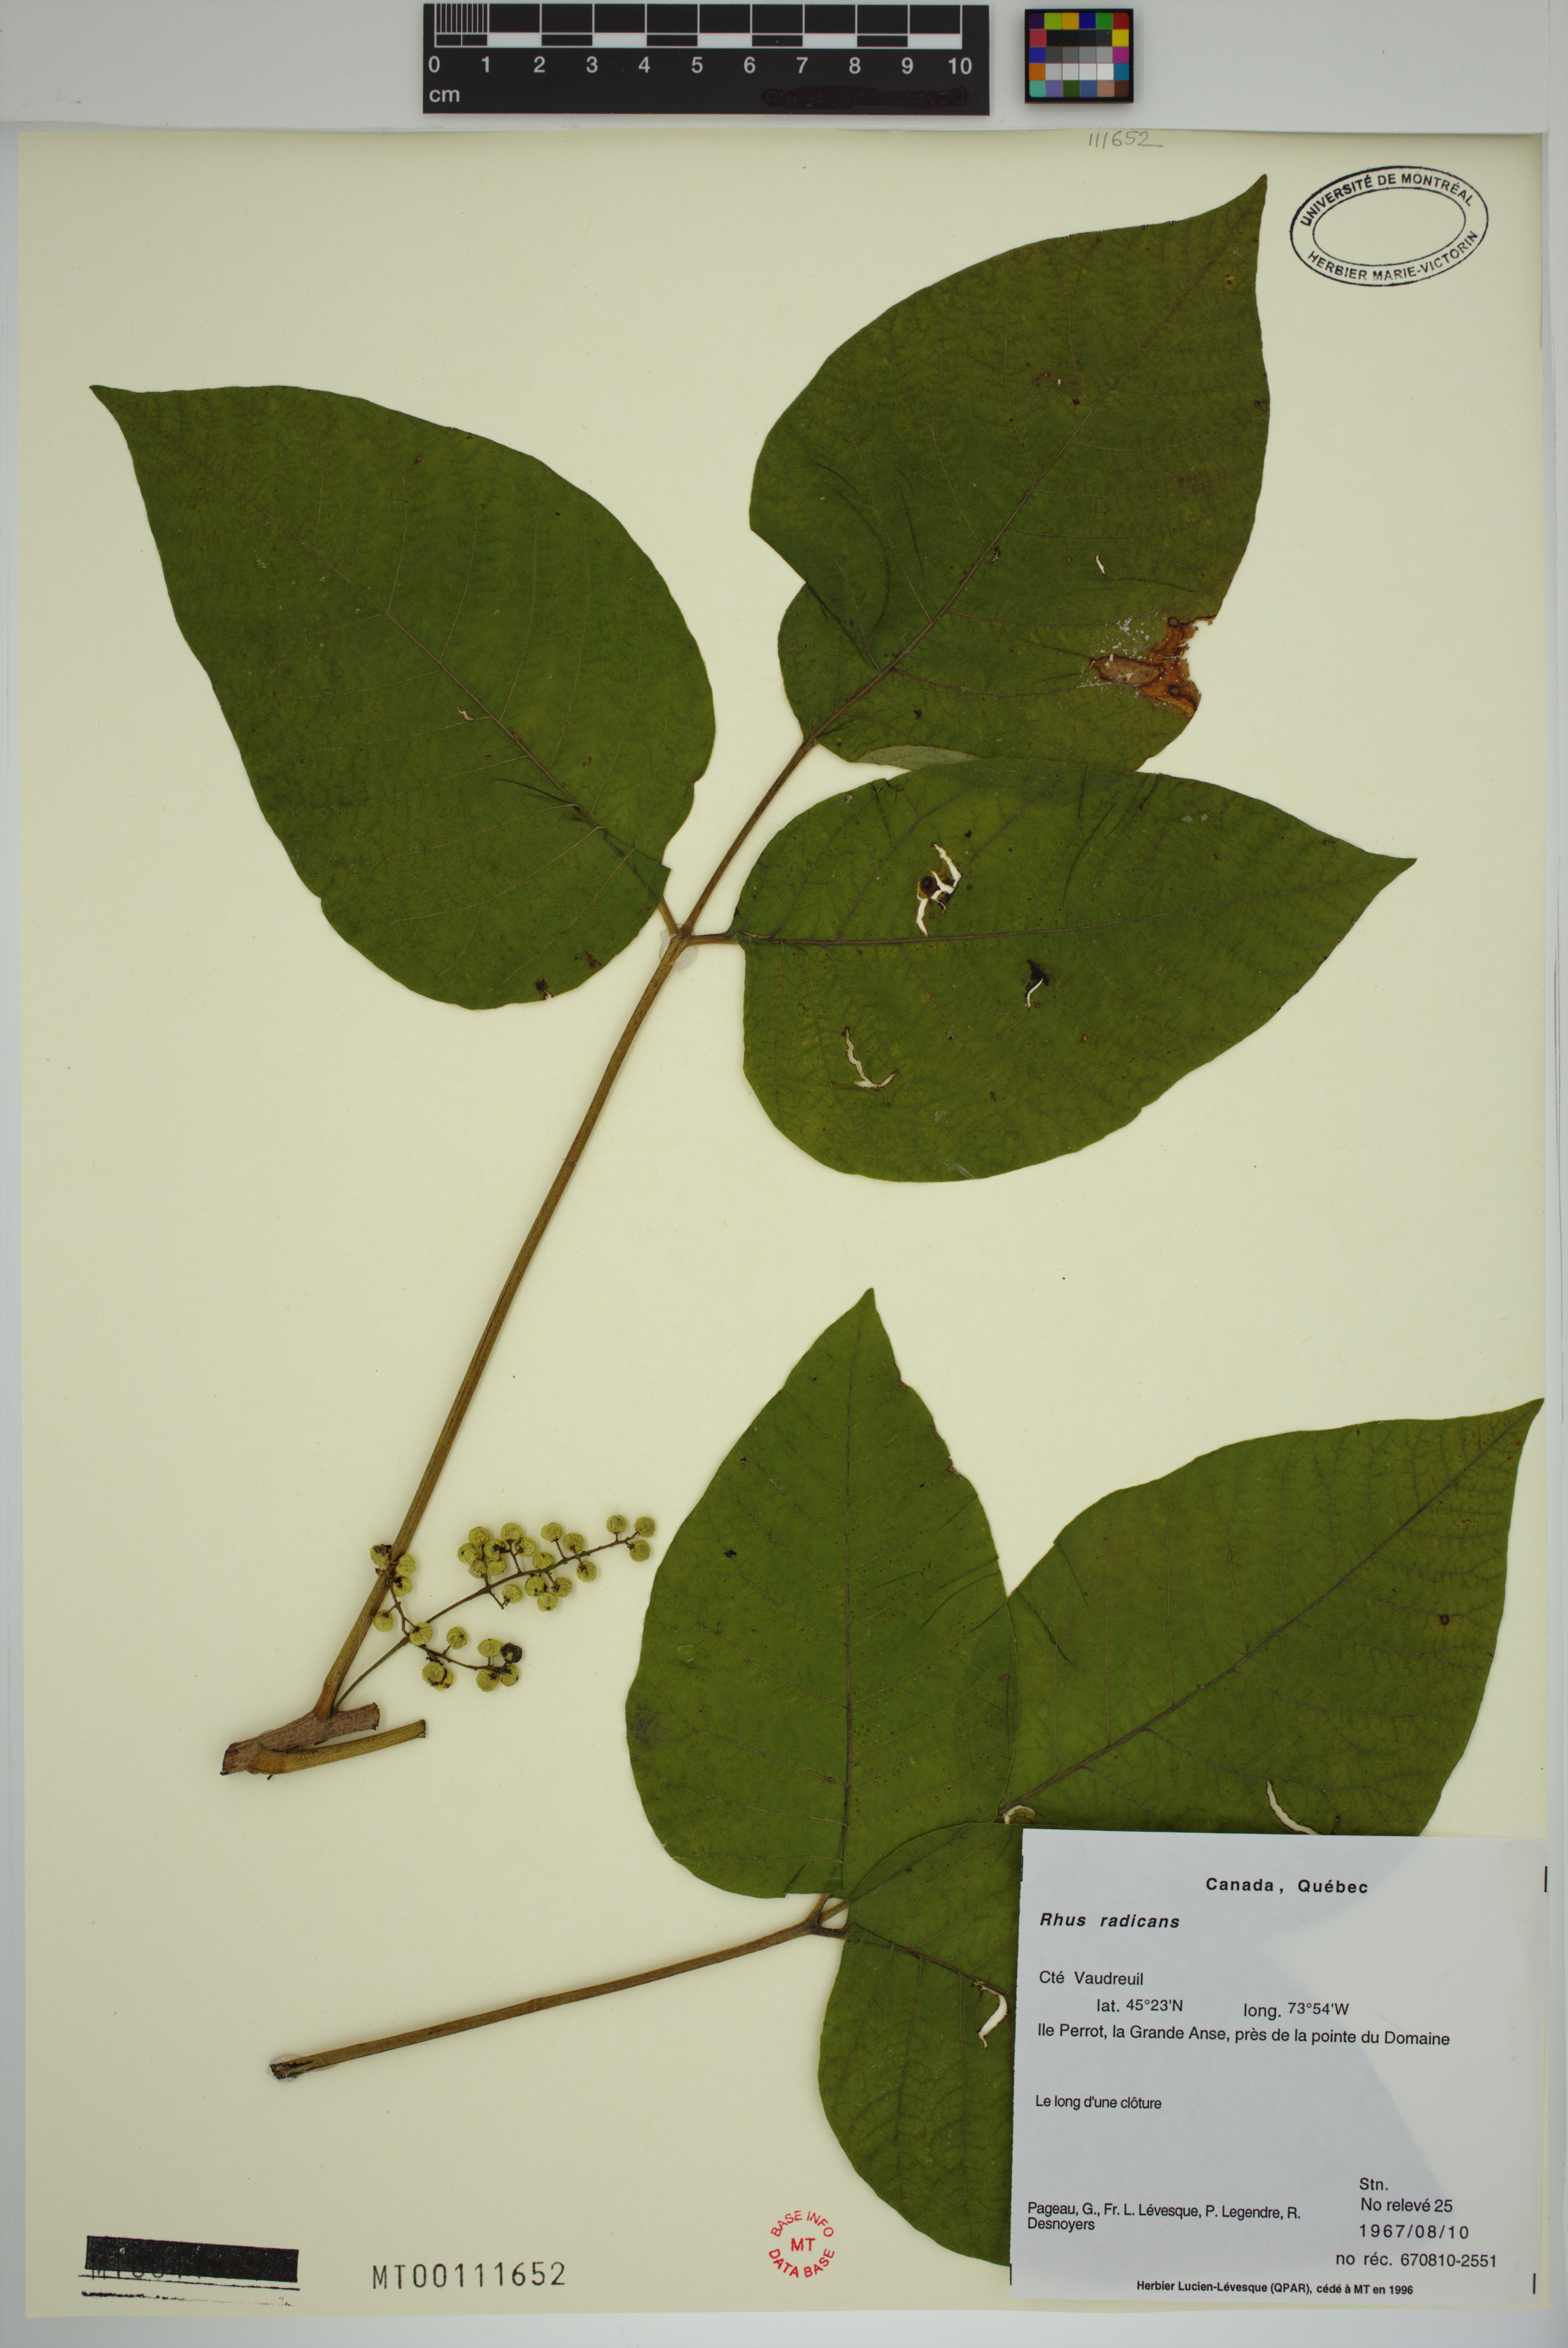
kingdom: Plantae
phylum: Tracheophyta
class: Magnoliopsida
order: Sapindales
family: Anacardiaceae
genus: Toxicodendron
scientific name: Toxicodendron radicans
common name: Poison ivy
